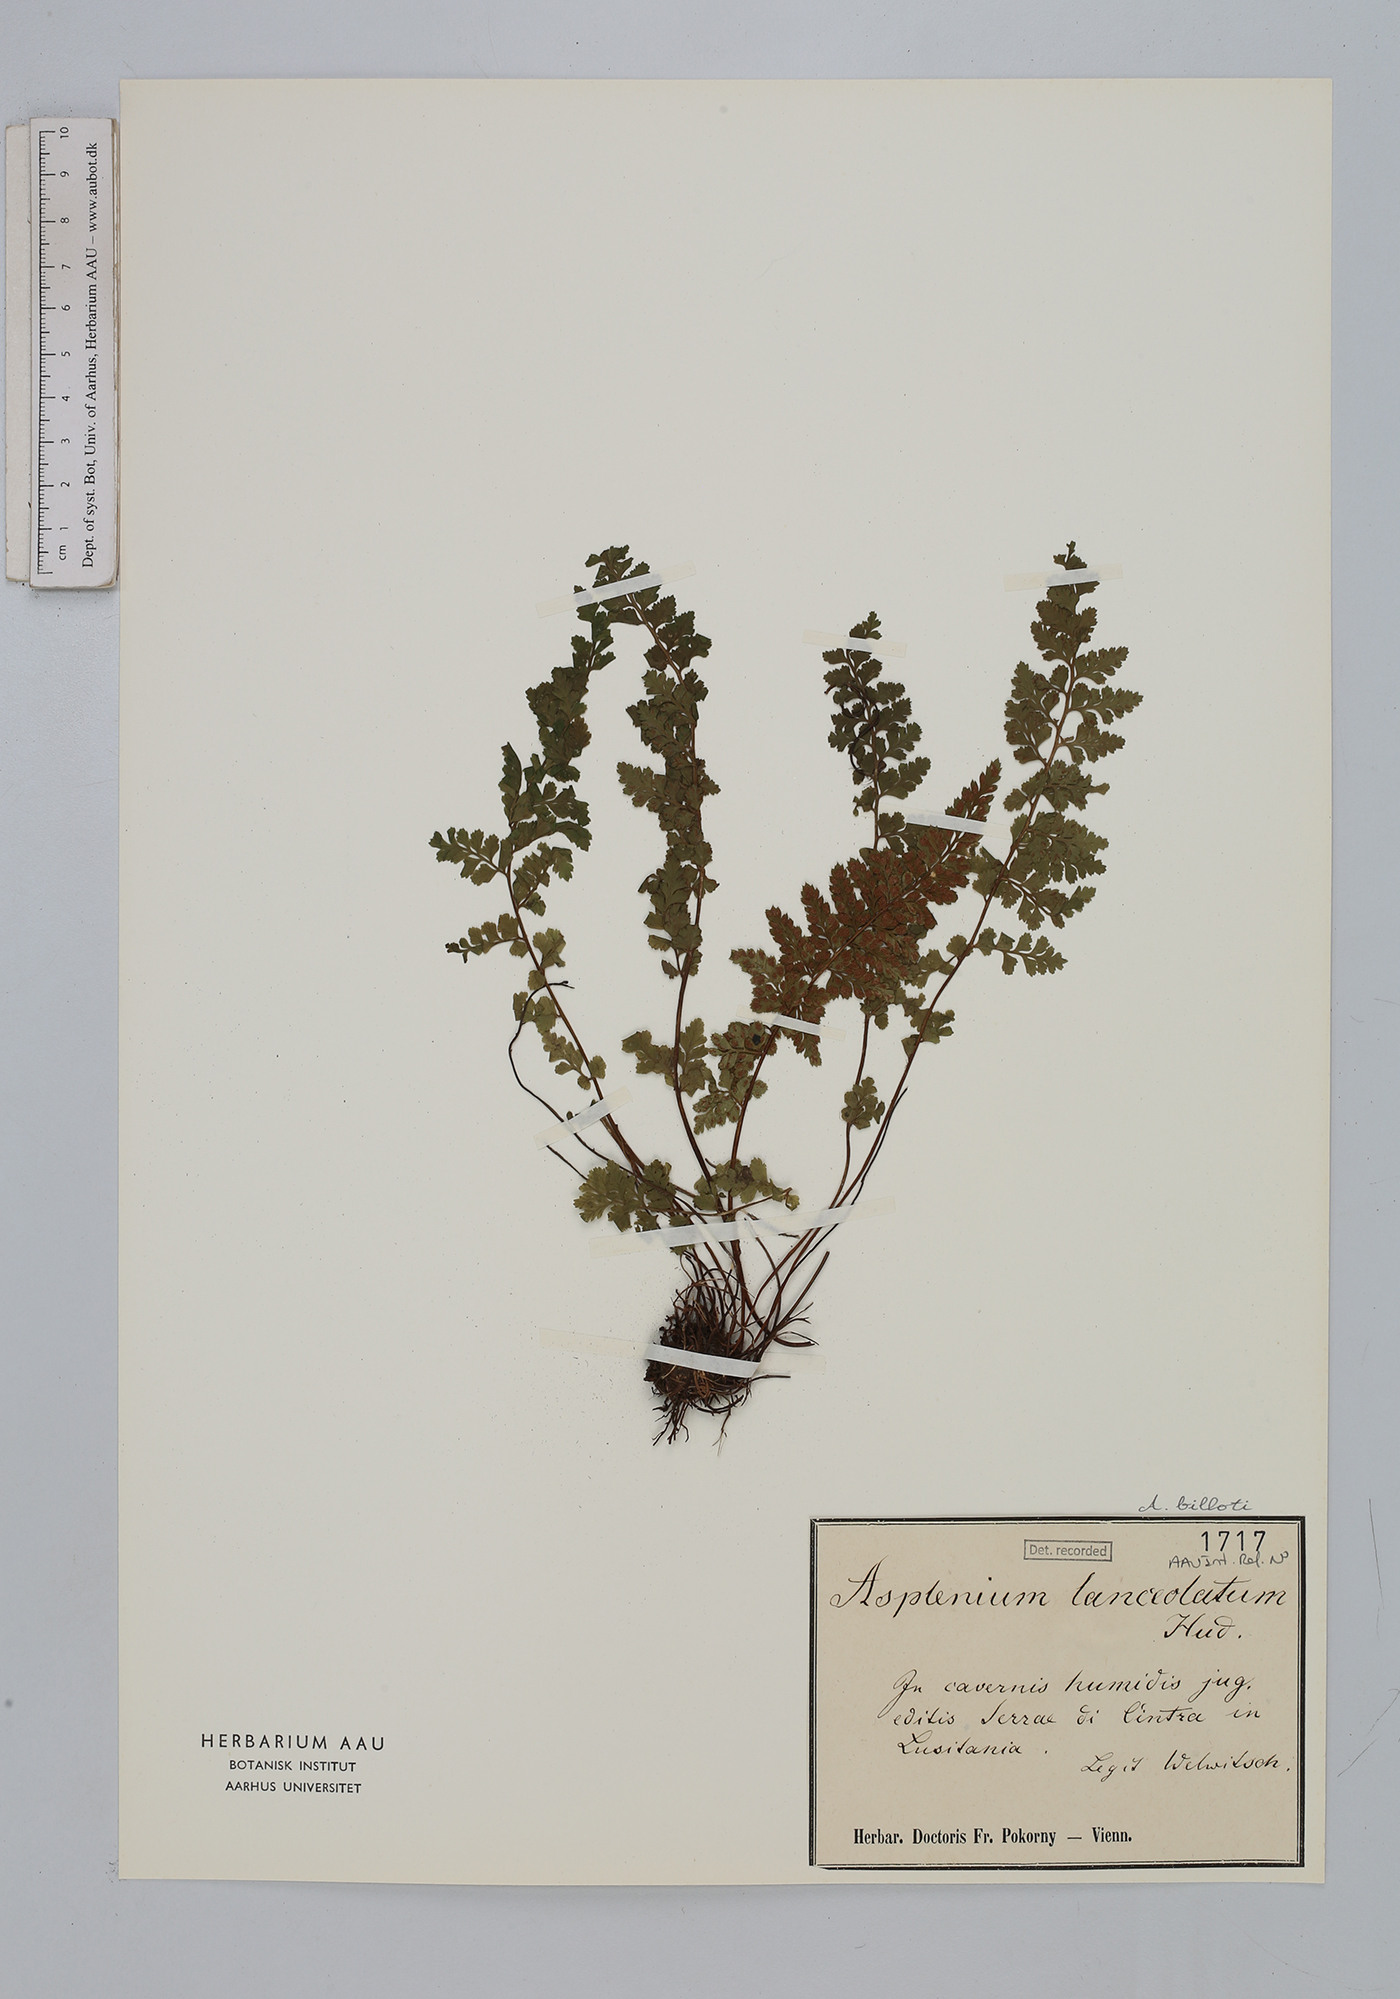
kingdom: Plantae
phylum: Tracheophyta
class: Polypodiopsida
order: Polypodiales
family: Aspleniaceae
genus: Asplenium
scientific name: Asplenium obovatum
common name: Lanceolate spleenwort
